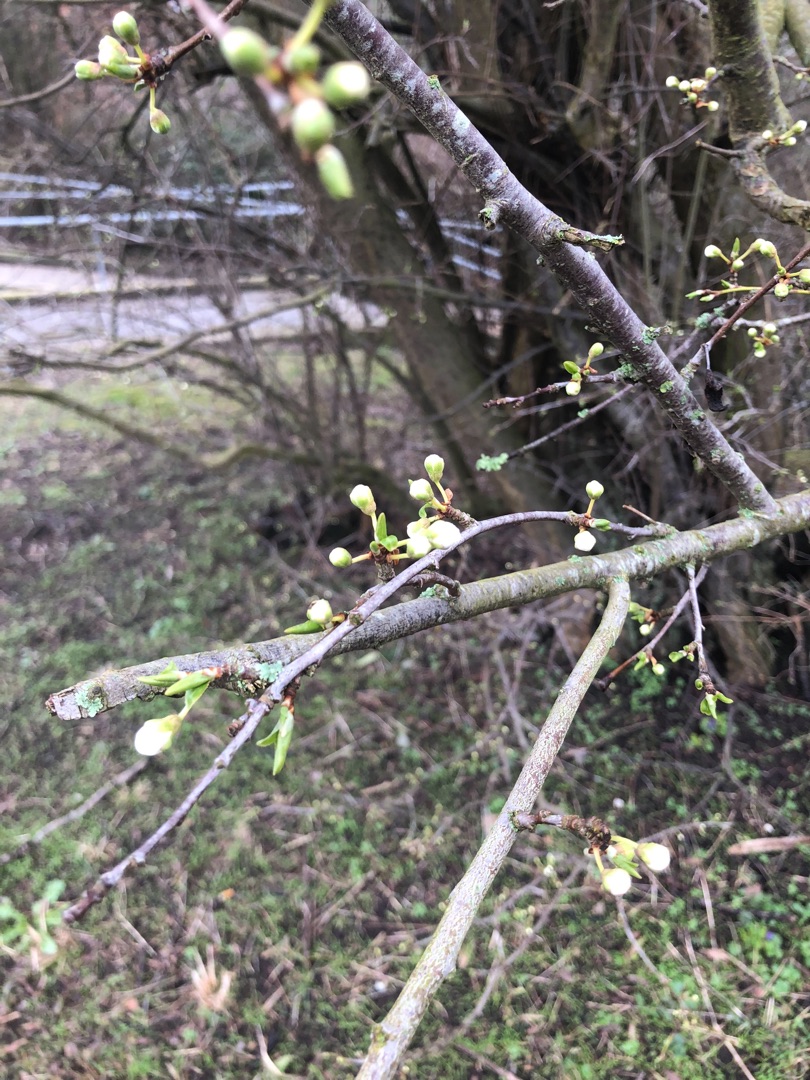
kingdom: Plantae
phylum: Tracheophyta
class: Magnoliopsida
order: Rosales
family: Rosaceae
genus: Prunus
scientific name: Prunus cerasifera
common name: Mirabel
